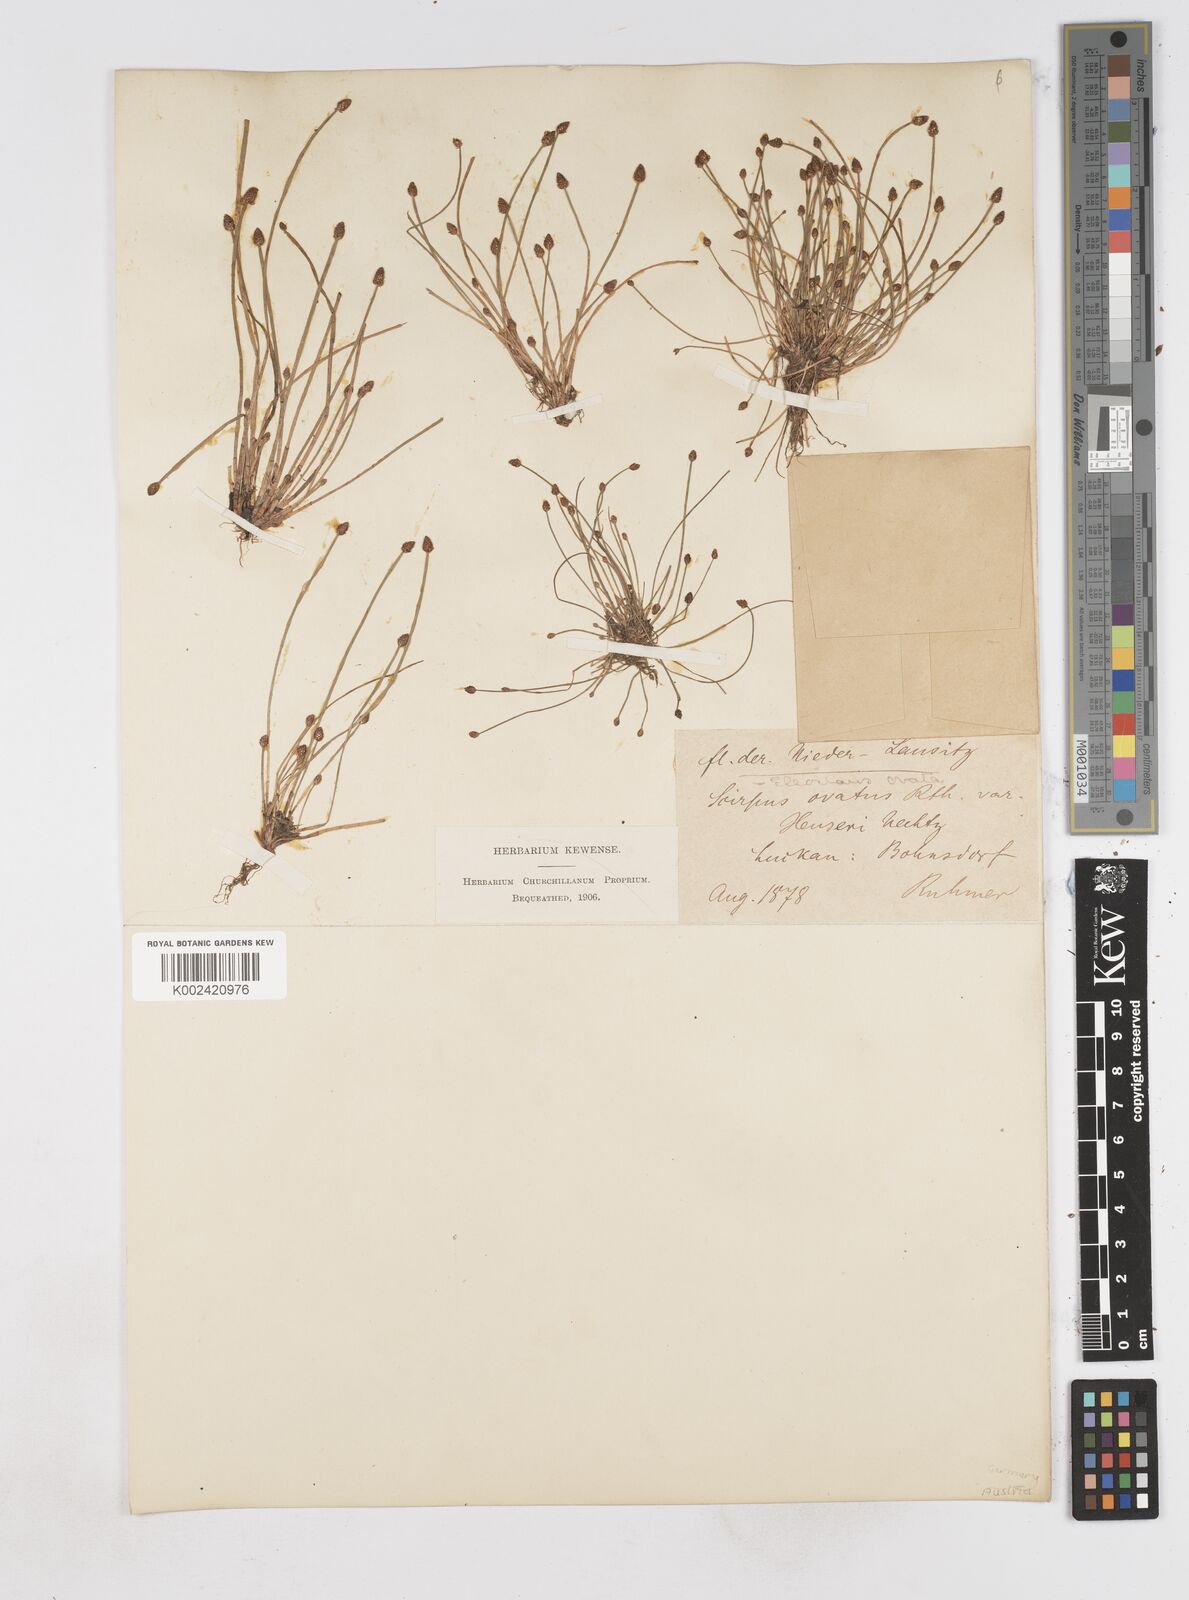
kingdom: Plantae
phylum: Tracheophyta
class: Liliopsida
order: Poales
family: Cyperaceae
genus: Eleocharis
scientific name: Eleocharis ovata
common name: Oval spike-rush
